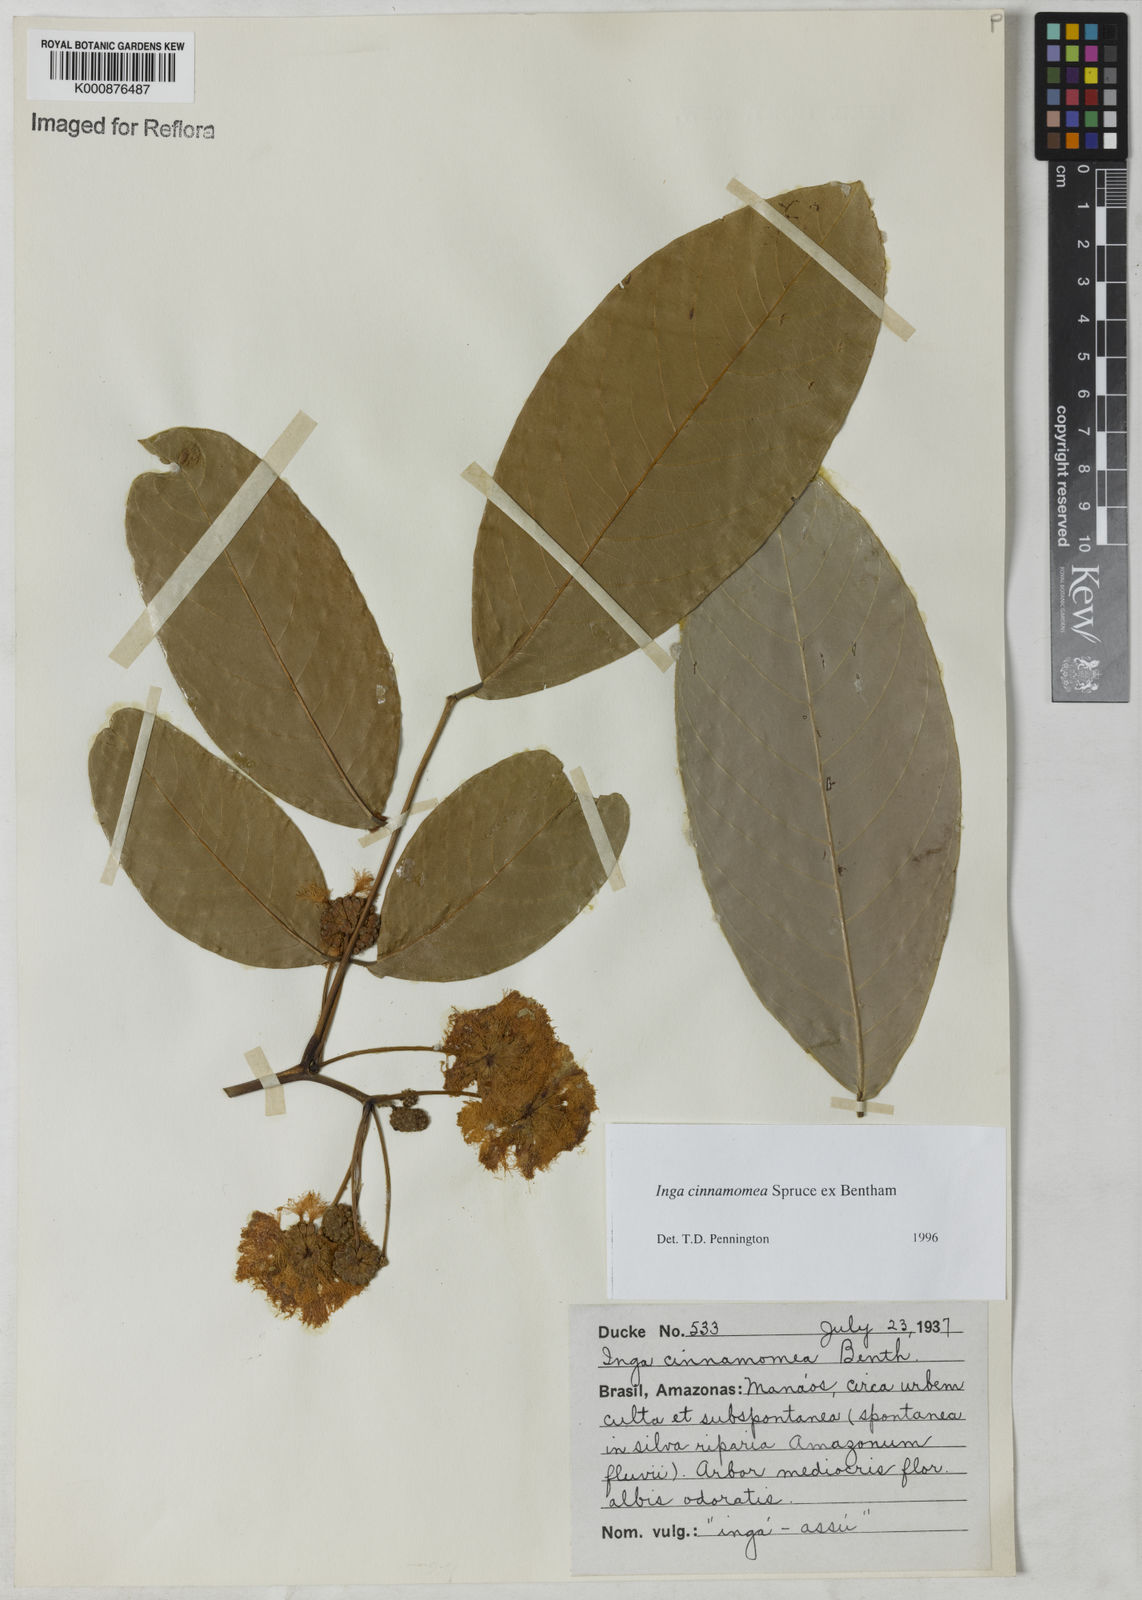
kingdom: Plantae
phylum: Tracheophyta
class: Magnoliopsida
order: Fabales
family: Fabaceae
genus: Inga
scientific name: Inga cinnamomea
